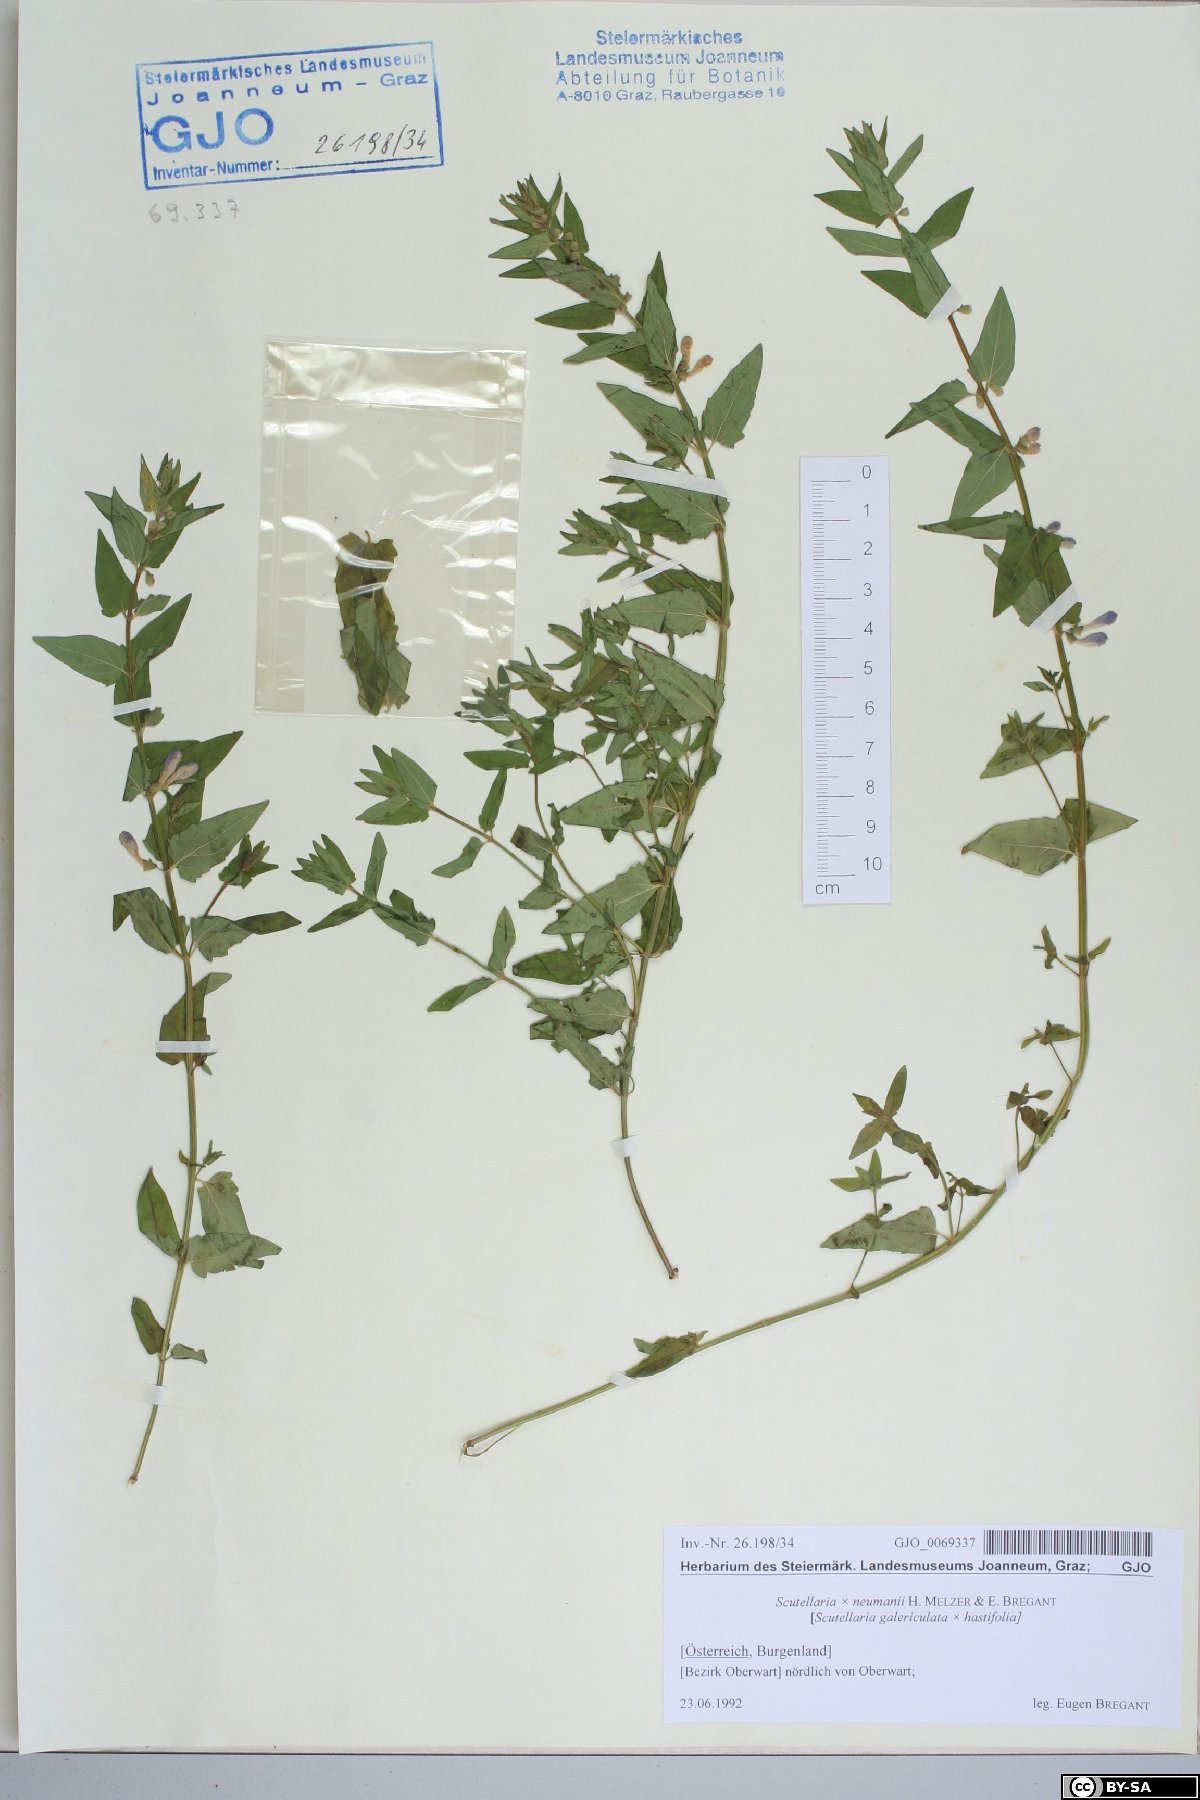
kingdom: Plantae
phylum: Tracheophyta
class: Magnoliopsida
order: Lamiales
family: Lamiaceae
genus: Scutellaria
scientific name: Scutellaria neumannii
